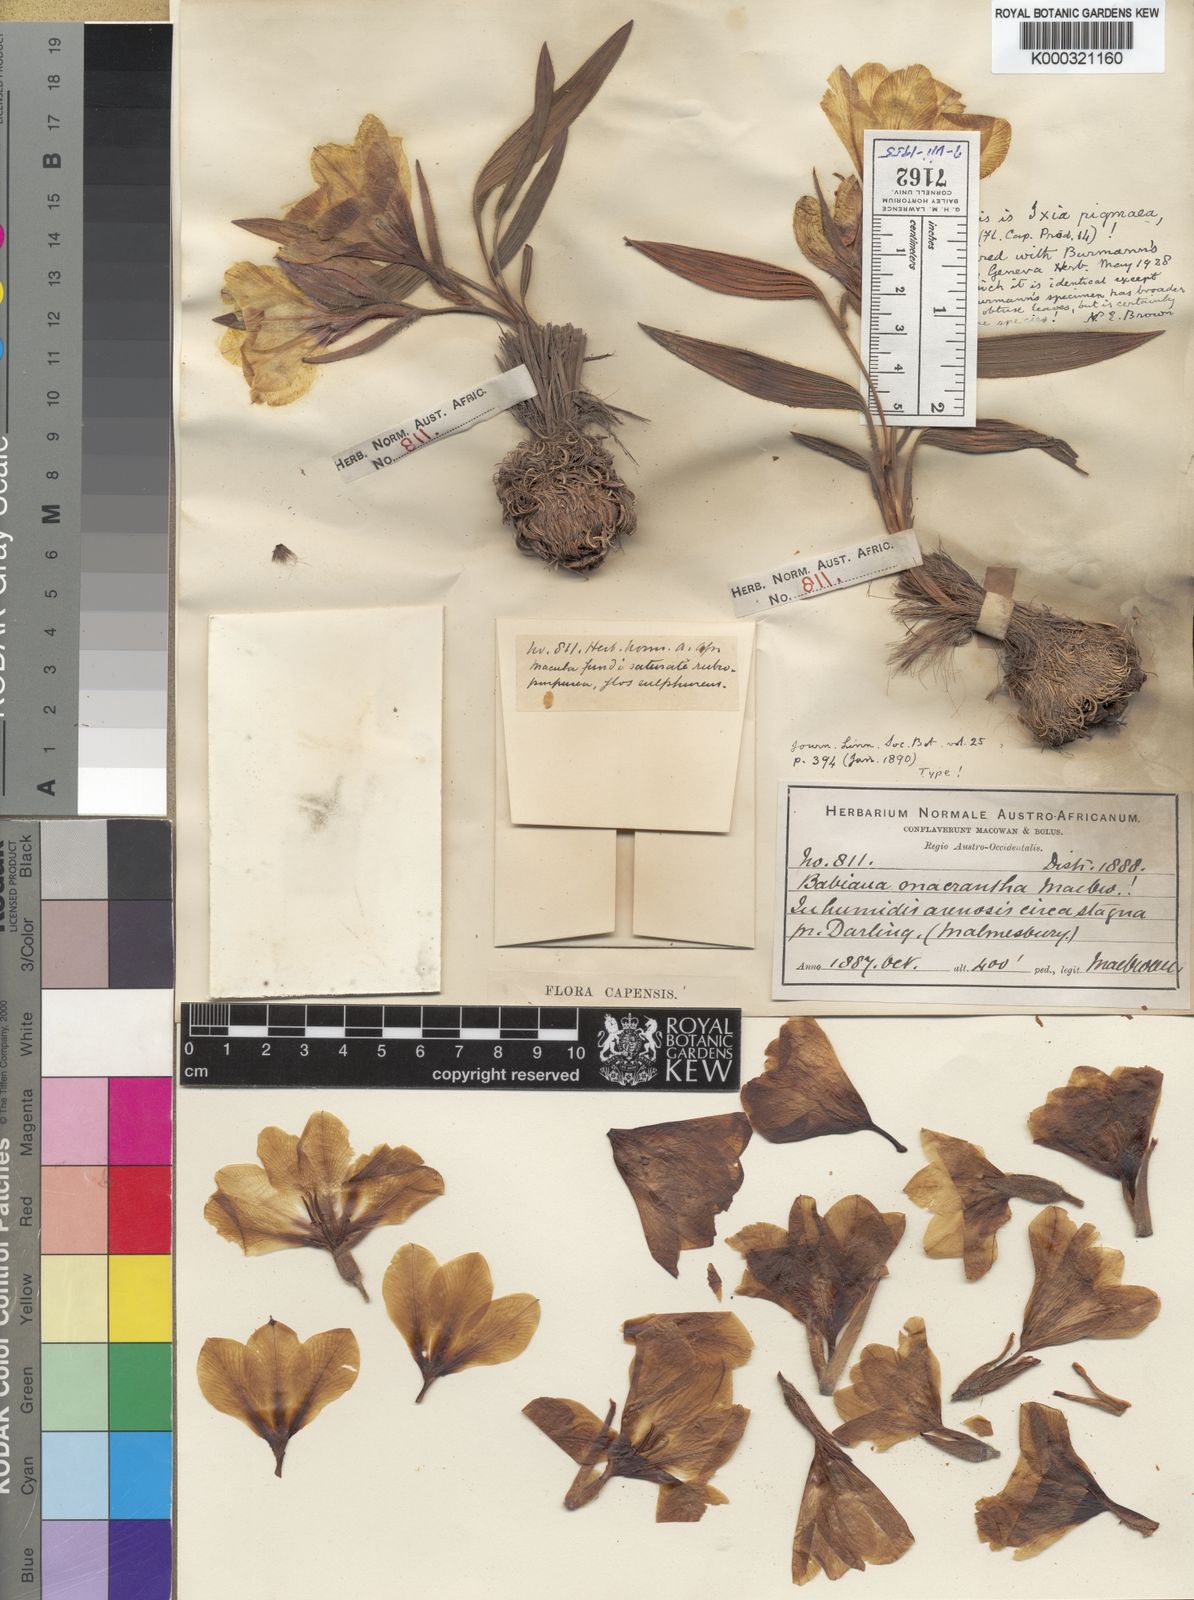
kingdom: Plantae
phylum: Tracheophyta
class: Liliopsida
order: Asparagales
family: Iridaceae
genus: Babiana
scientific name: Babiana pygmaea
